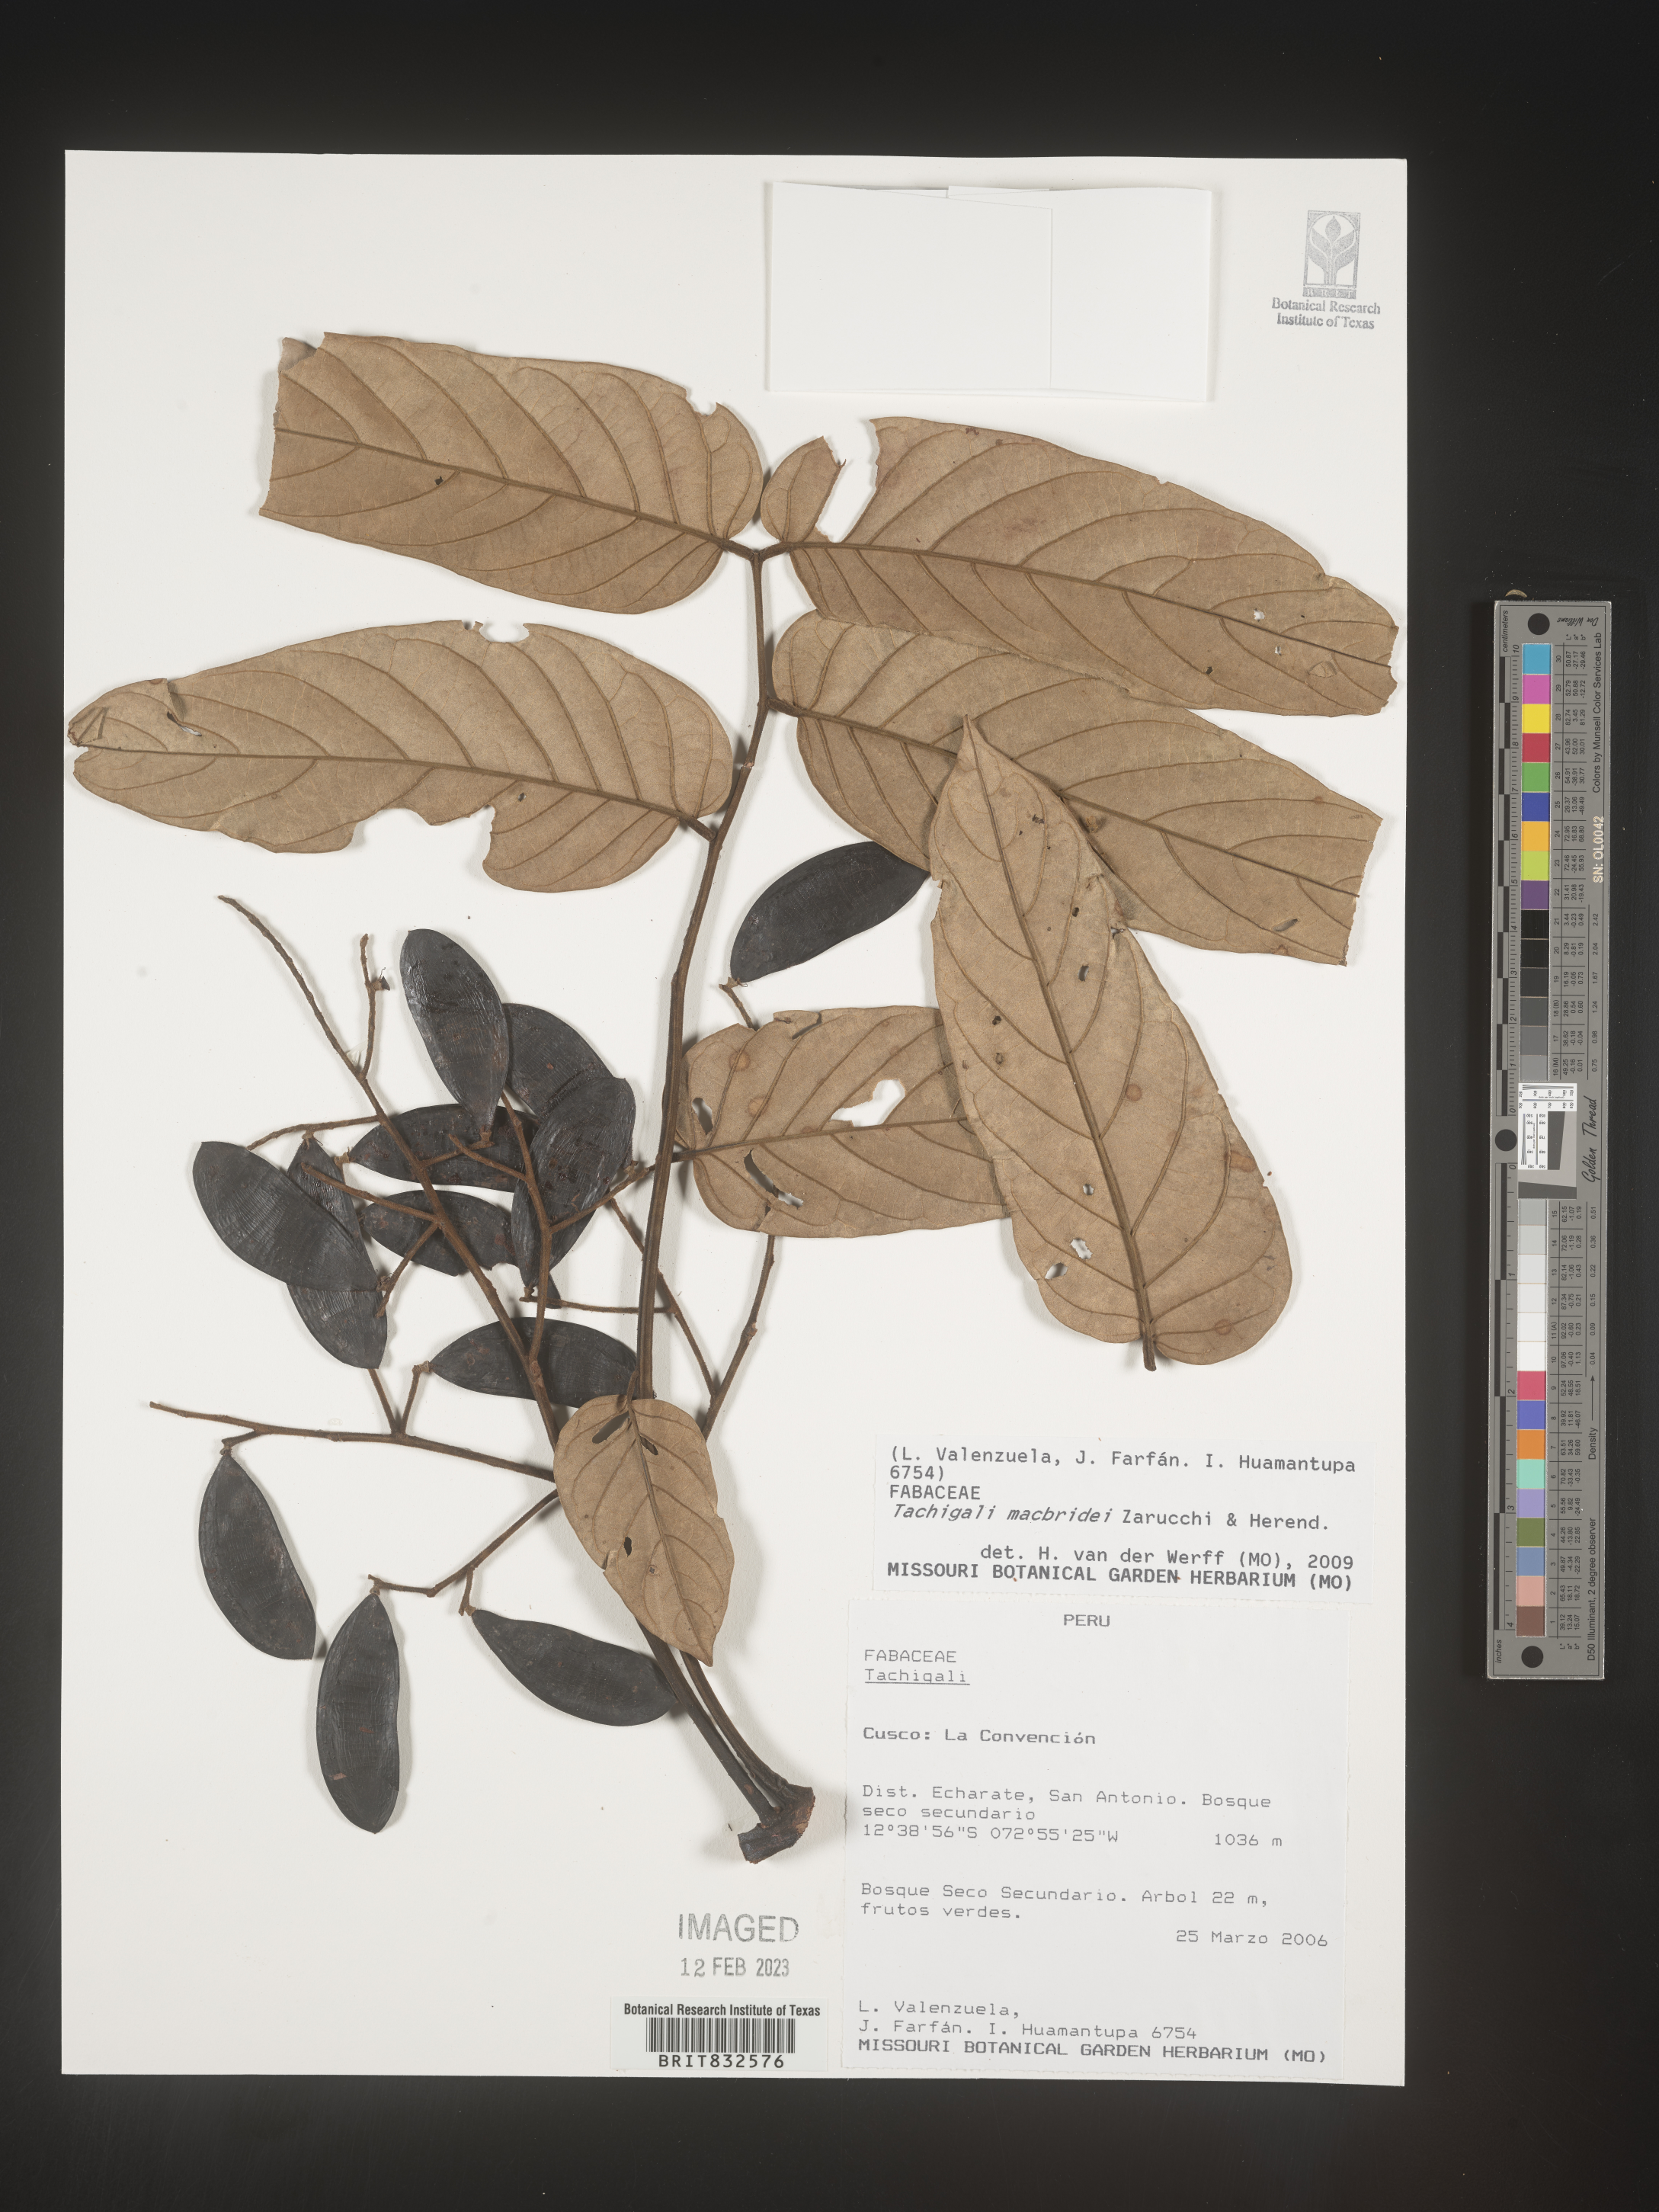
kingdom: Plantae
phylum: Tracheophyta
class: Magnoliopsida
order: Fabales
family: Fabaceae
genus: Tachigali
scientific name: Tachigali macbridei
